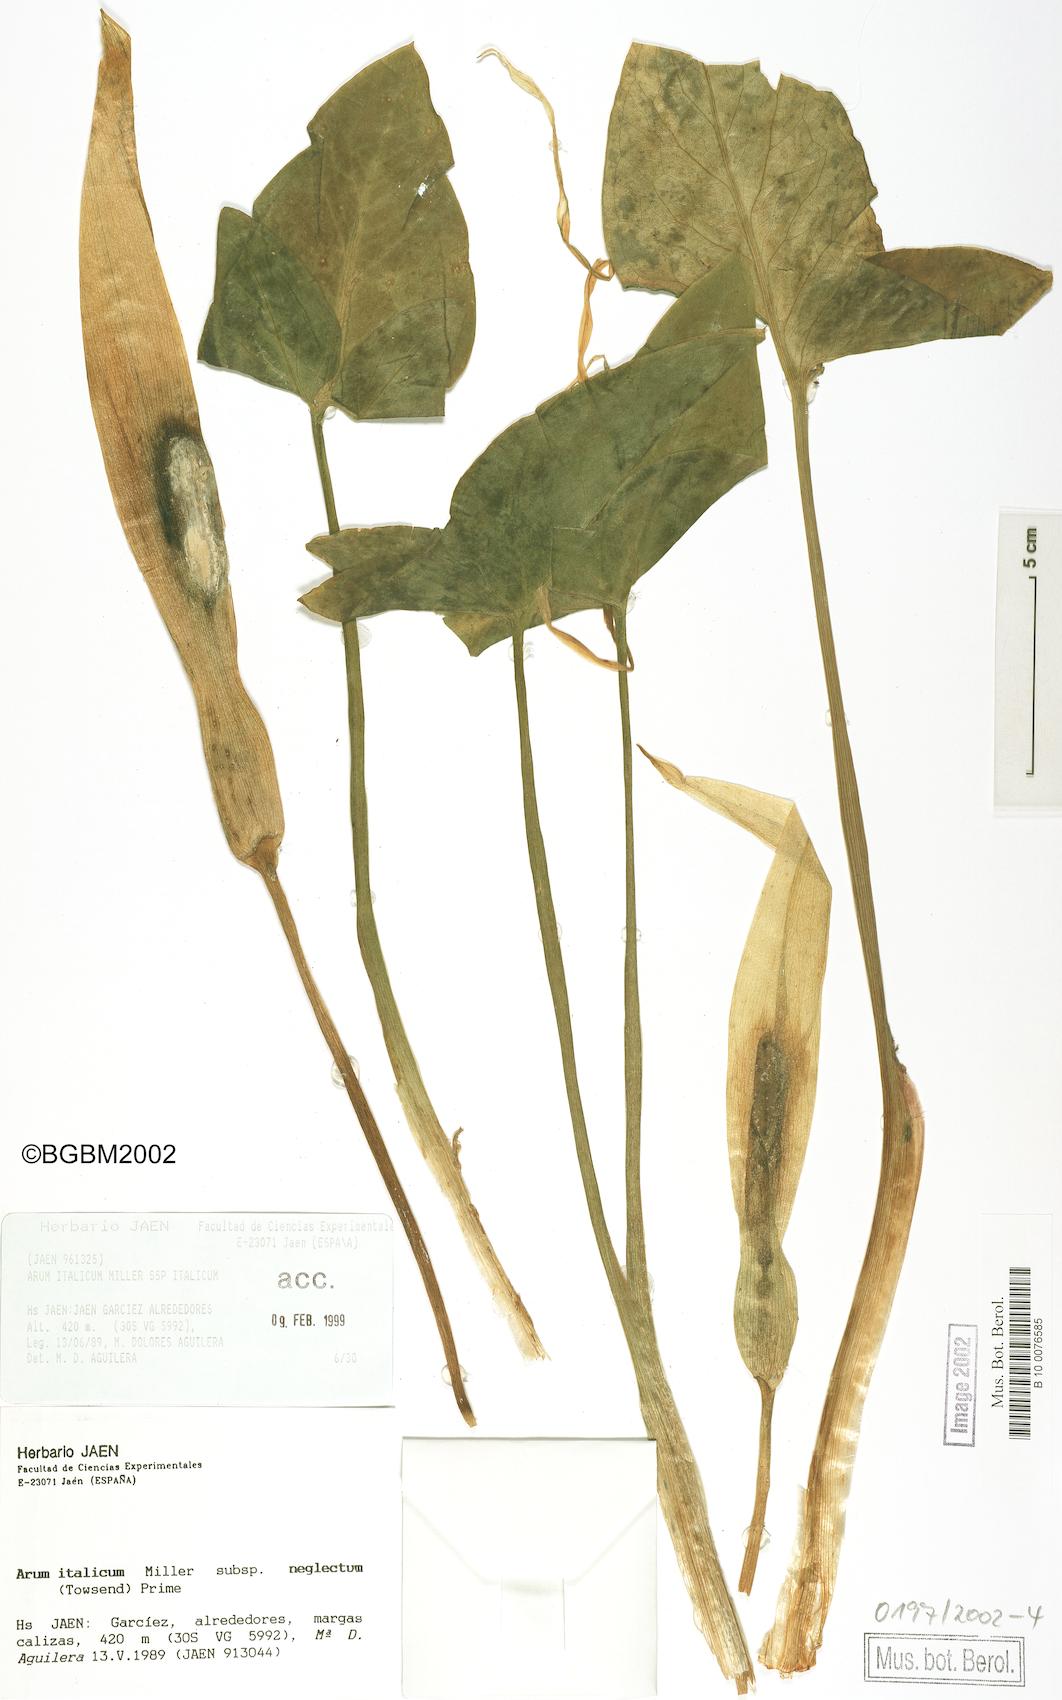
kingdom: Plantae
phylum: Tracheophyta
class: Liliopsida
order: Alismatales
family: Araceae
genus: Arum
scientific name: Arum italicum
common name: Italian lords-and-ladies
